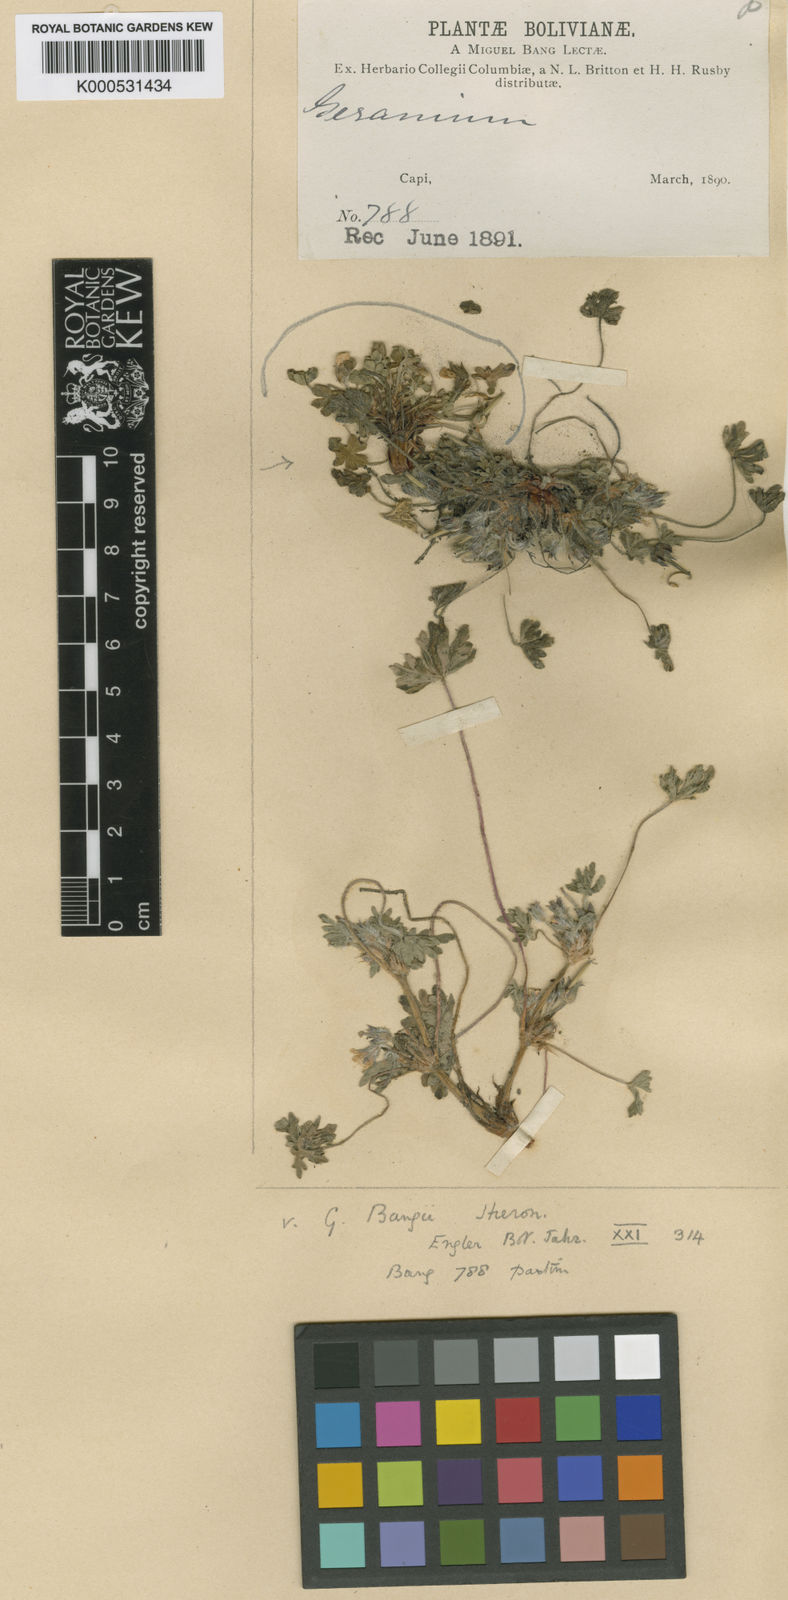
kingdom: Plantae
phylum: Tracheophyta
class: Magnoliopsida
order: Geraniales
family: Geraniaceae
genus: Geranium
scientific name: Geranium sessiliflorum
